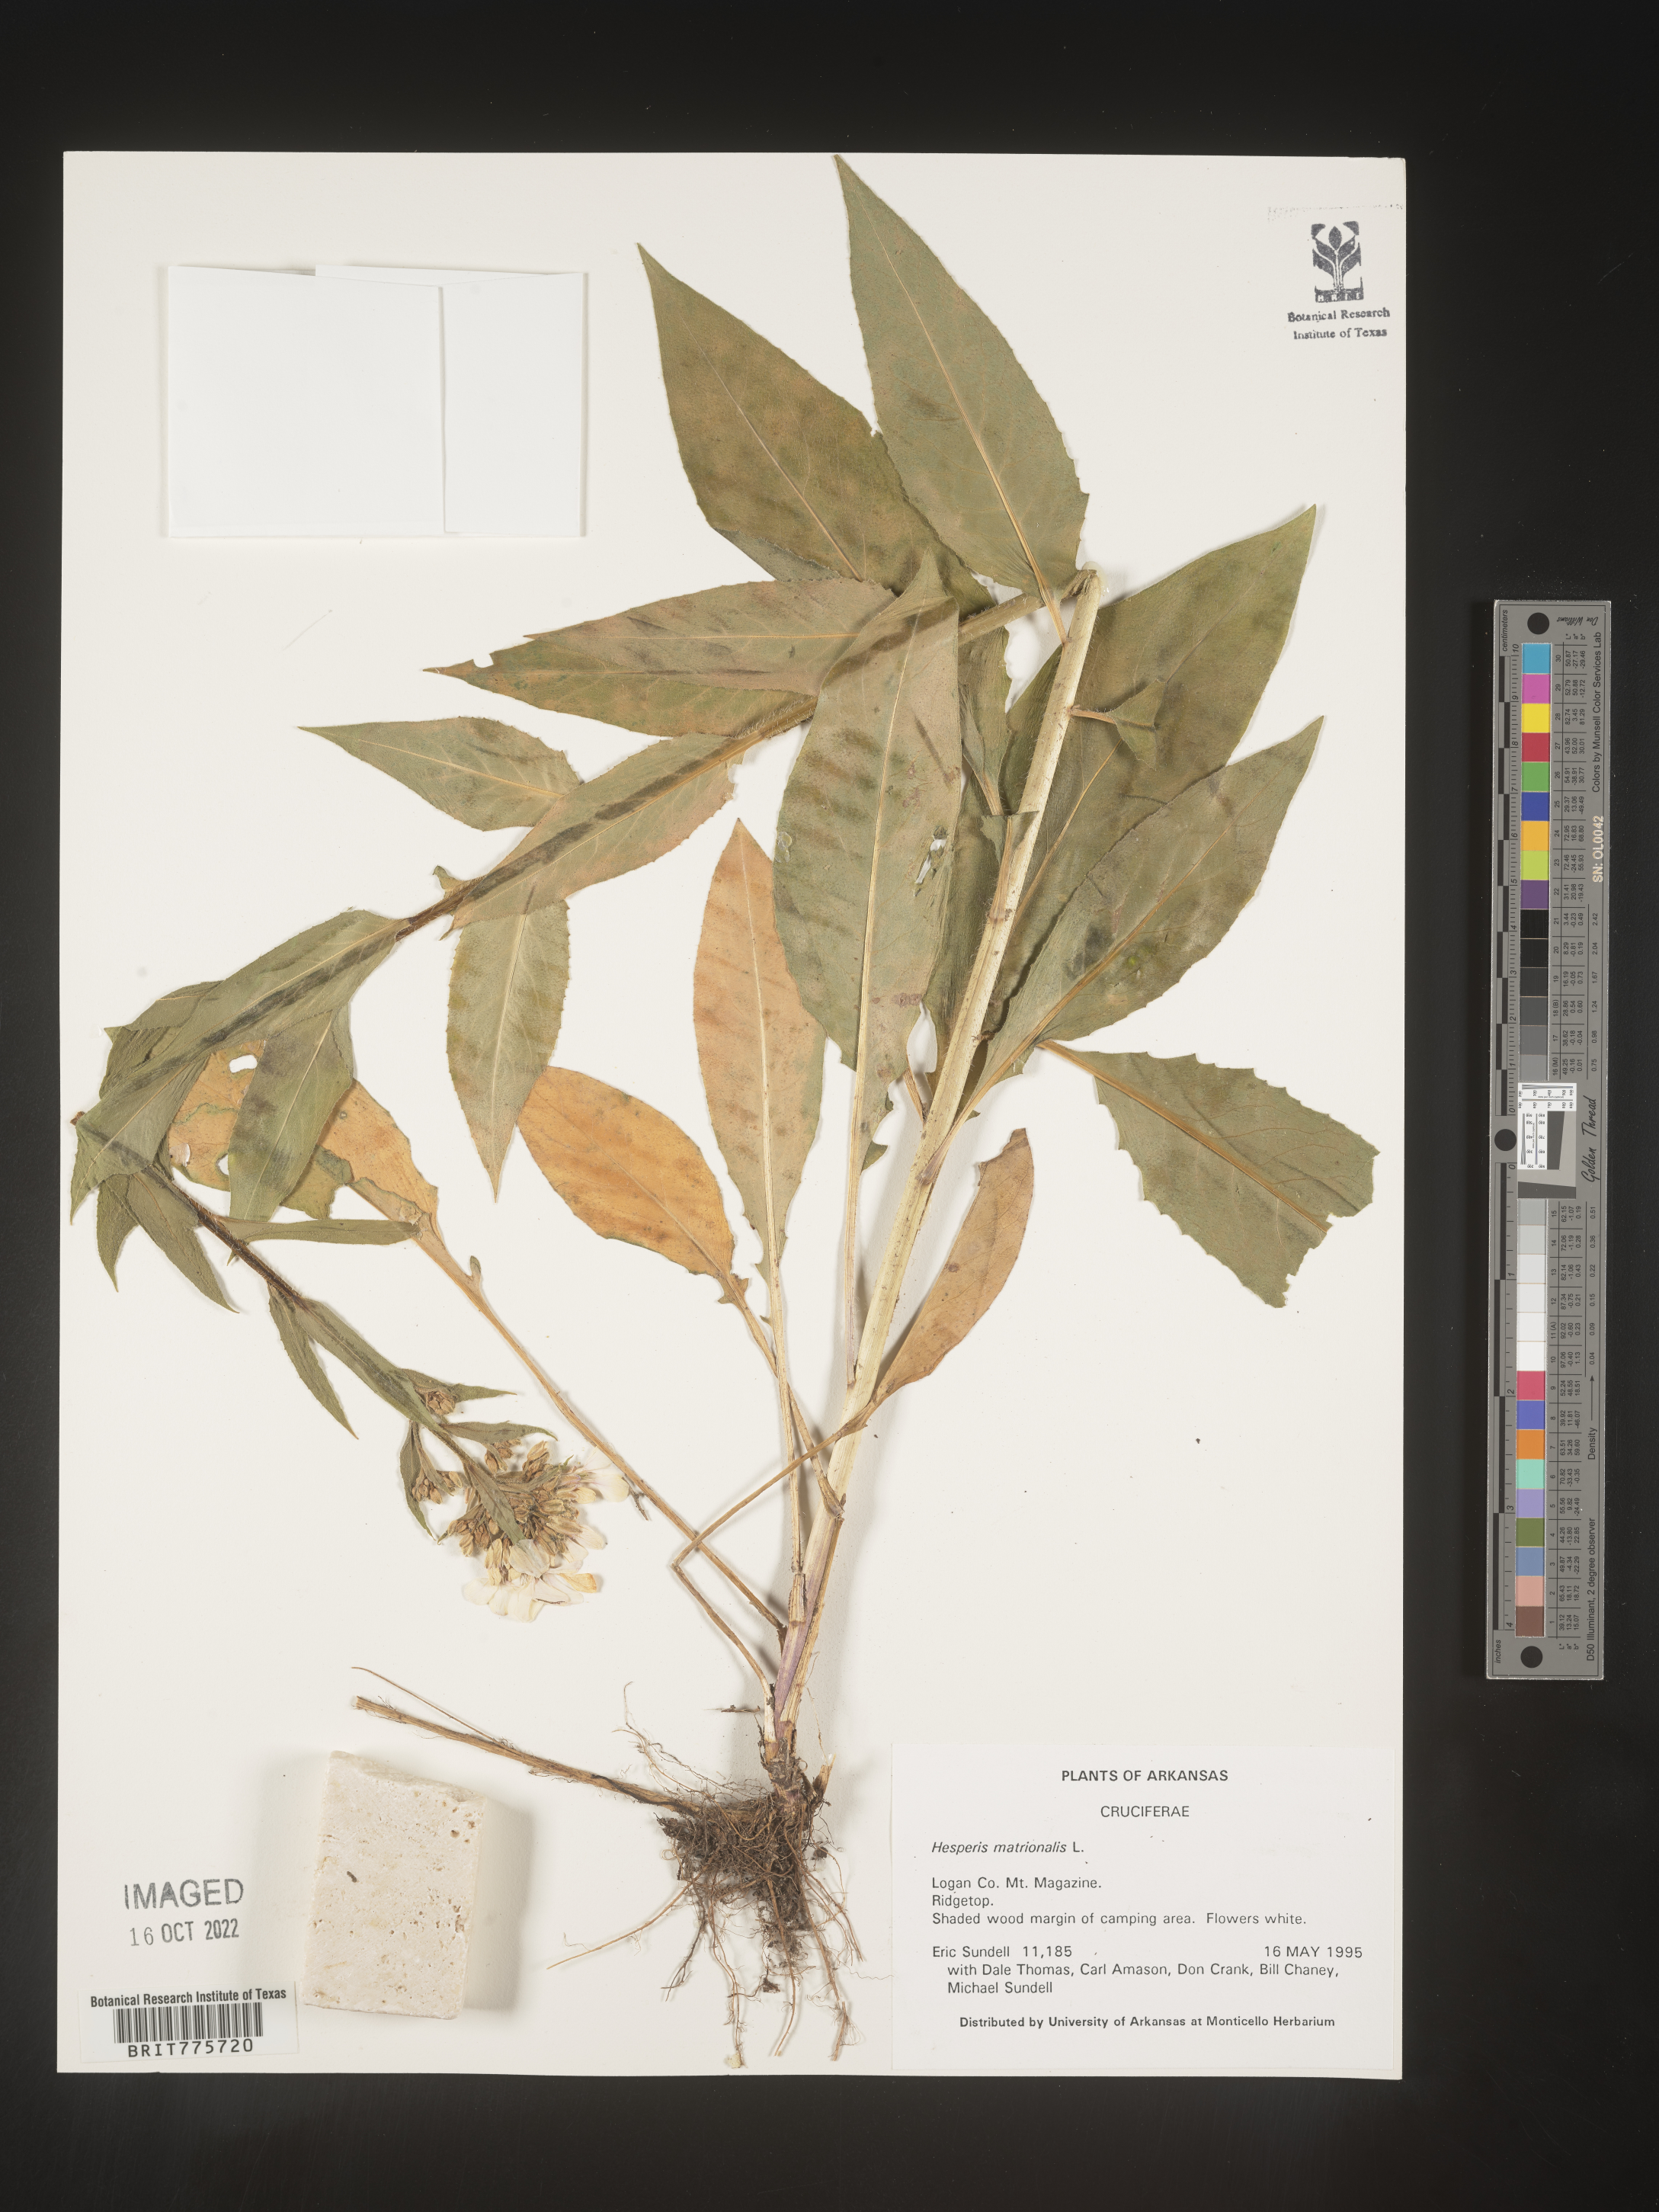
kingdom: Plantae
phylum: Tracheophyta
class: Magnoliopsida
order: Brassicales
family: Brassicaceae
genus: Hesperis
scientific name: Hesperis matronalis
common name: Dame's-violet
